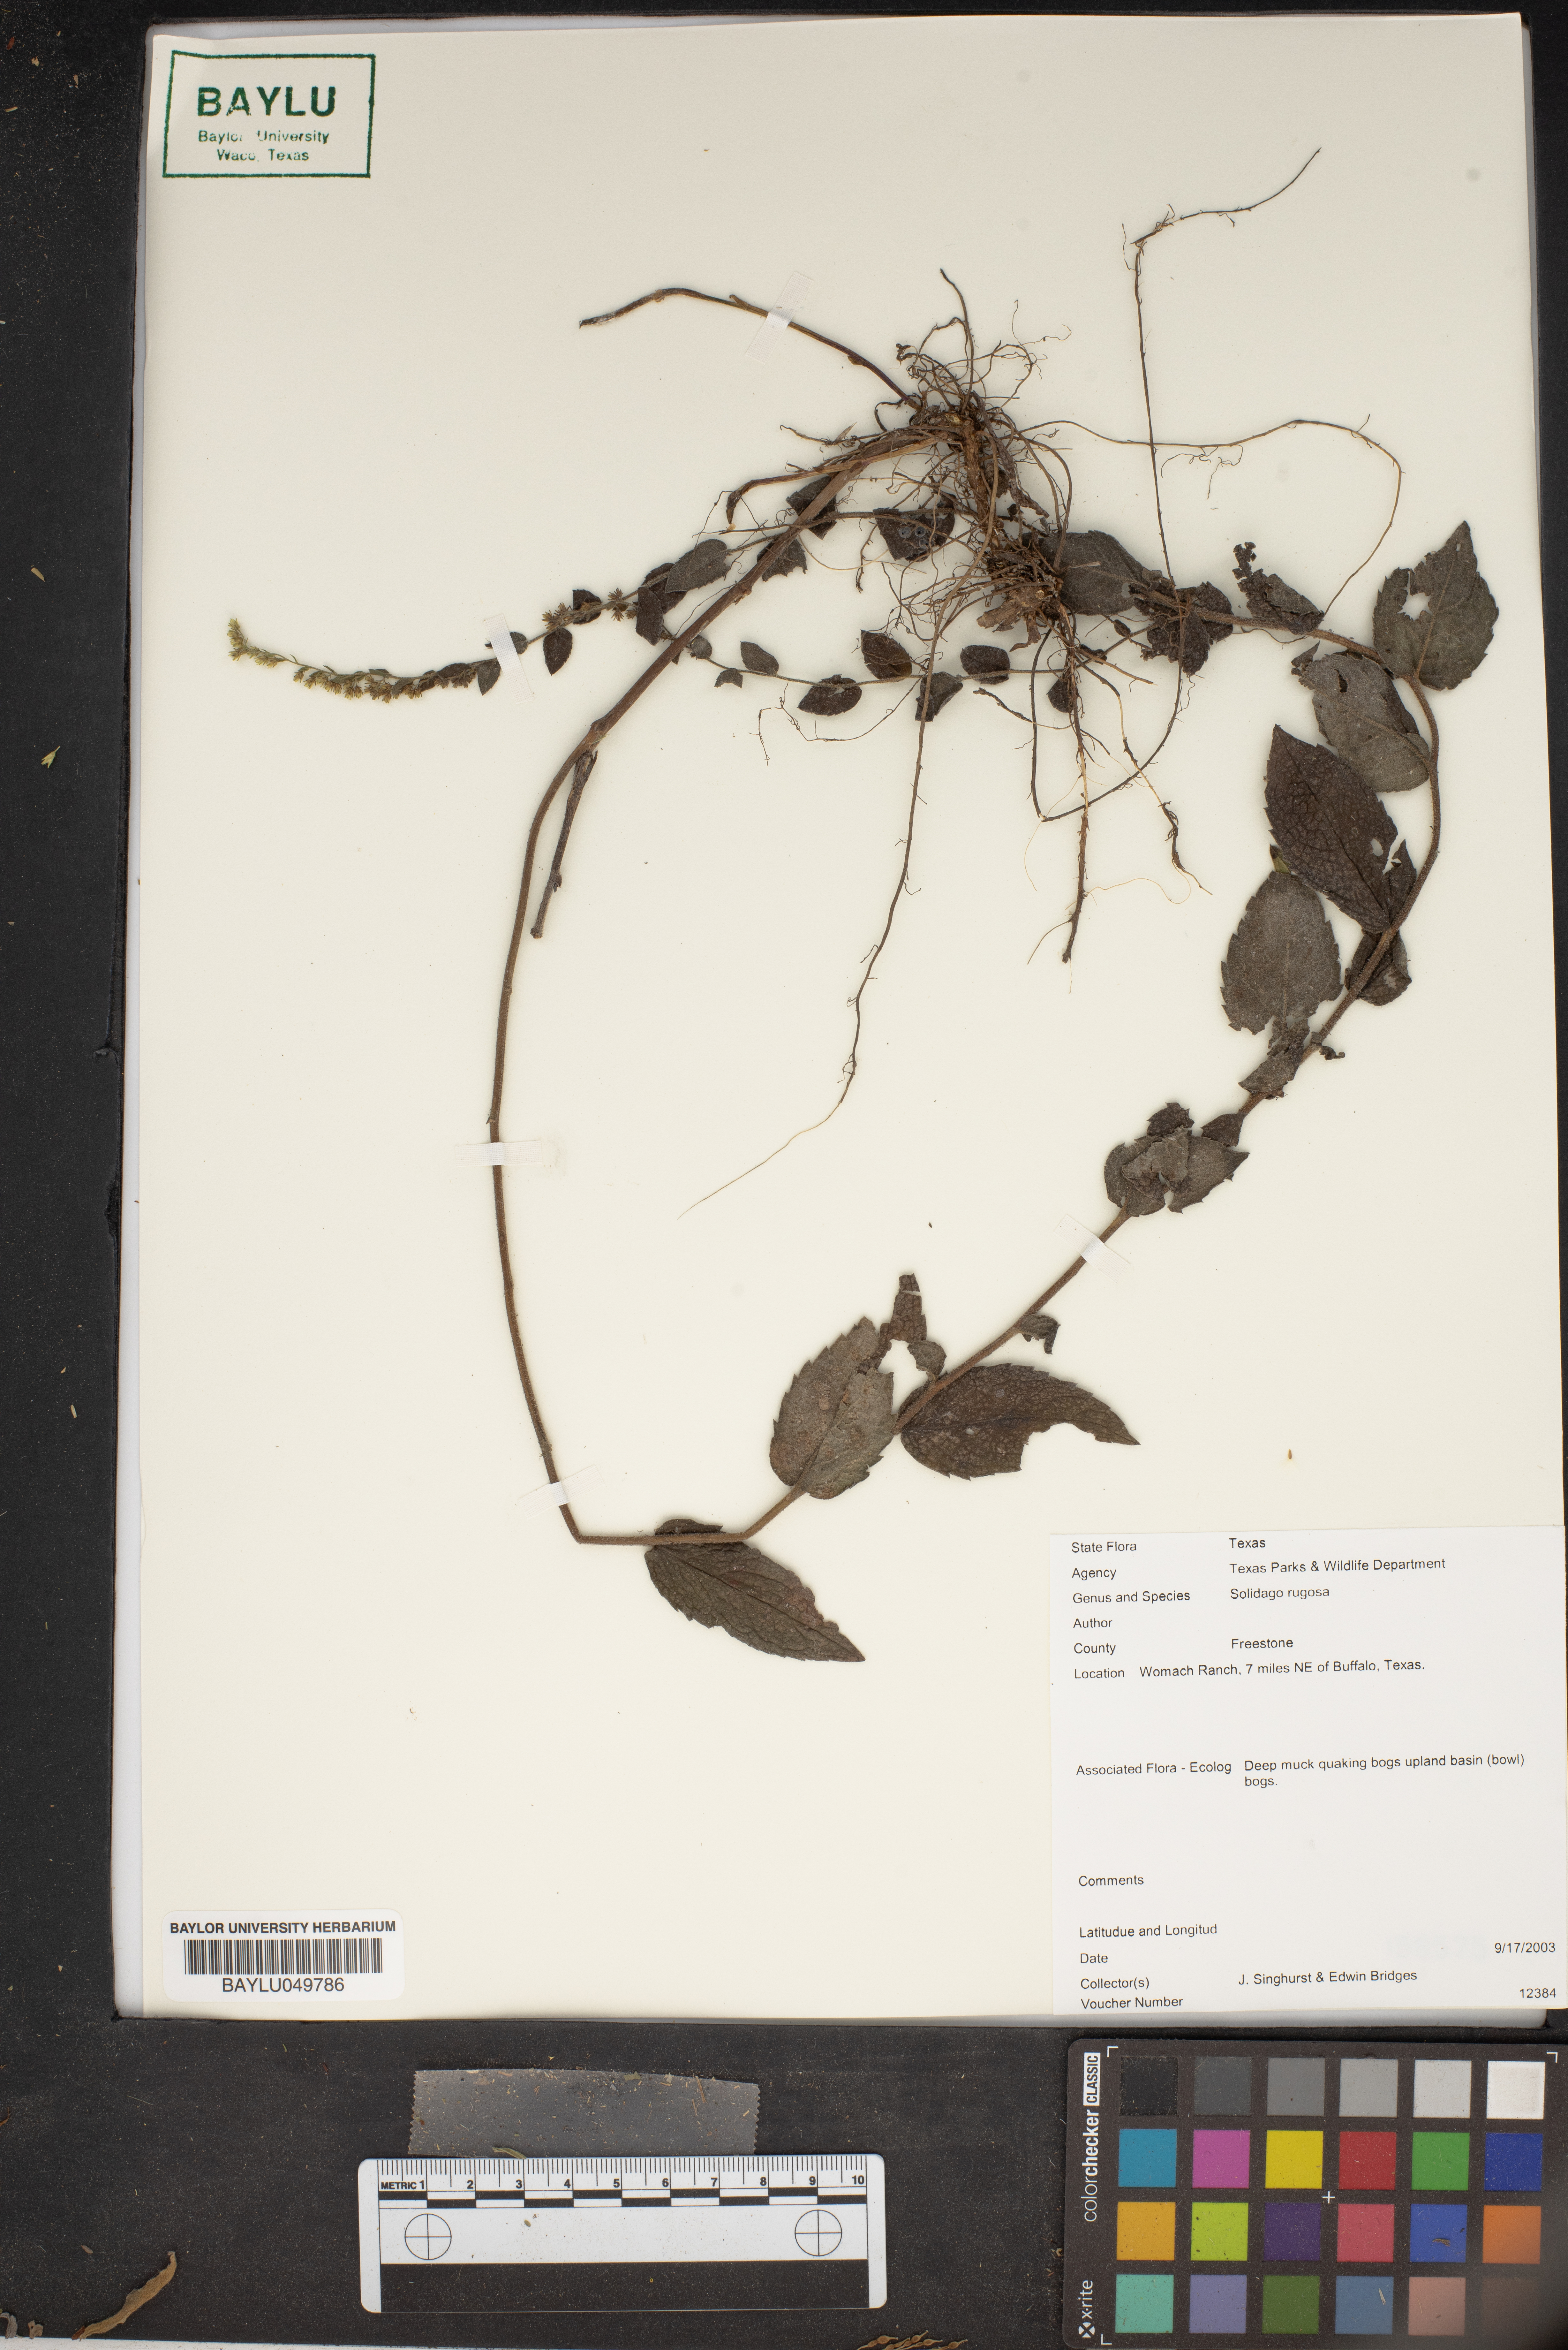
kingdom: Plantae
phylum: Tracheophyta
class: Magnoliopsida
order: Asterales
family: Asteraceae
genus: Solidago
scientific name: Solidago rugosa
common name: Rough-stemmed goldenrod
